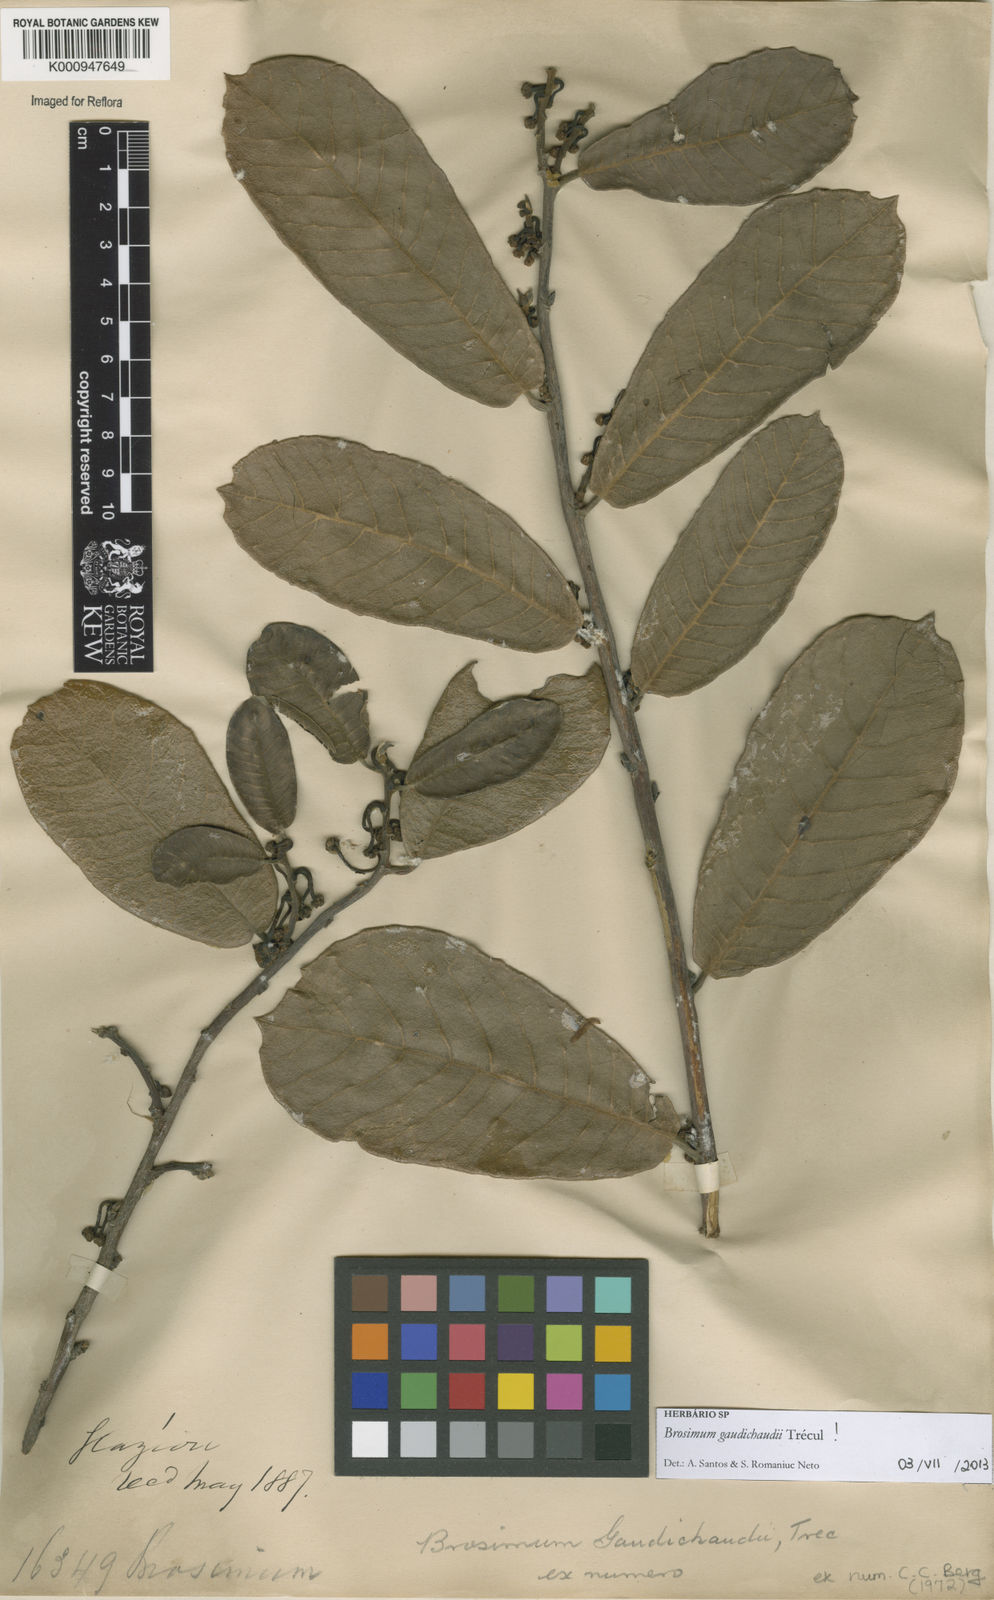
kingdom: Plantae
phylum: Tracheophyta
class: Magnoliopsida
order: Rosales
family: Moraceae
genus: Brosimum
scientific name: Brosimum
